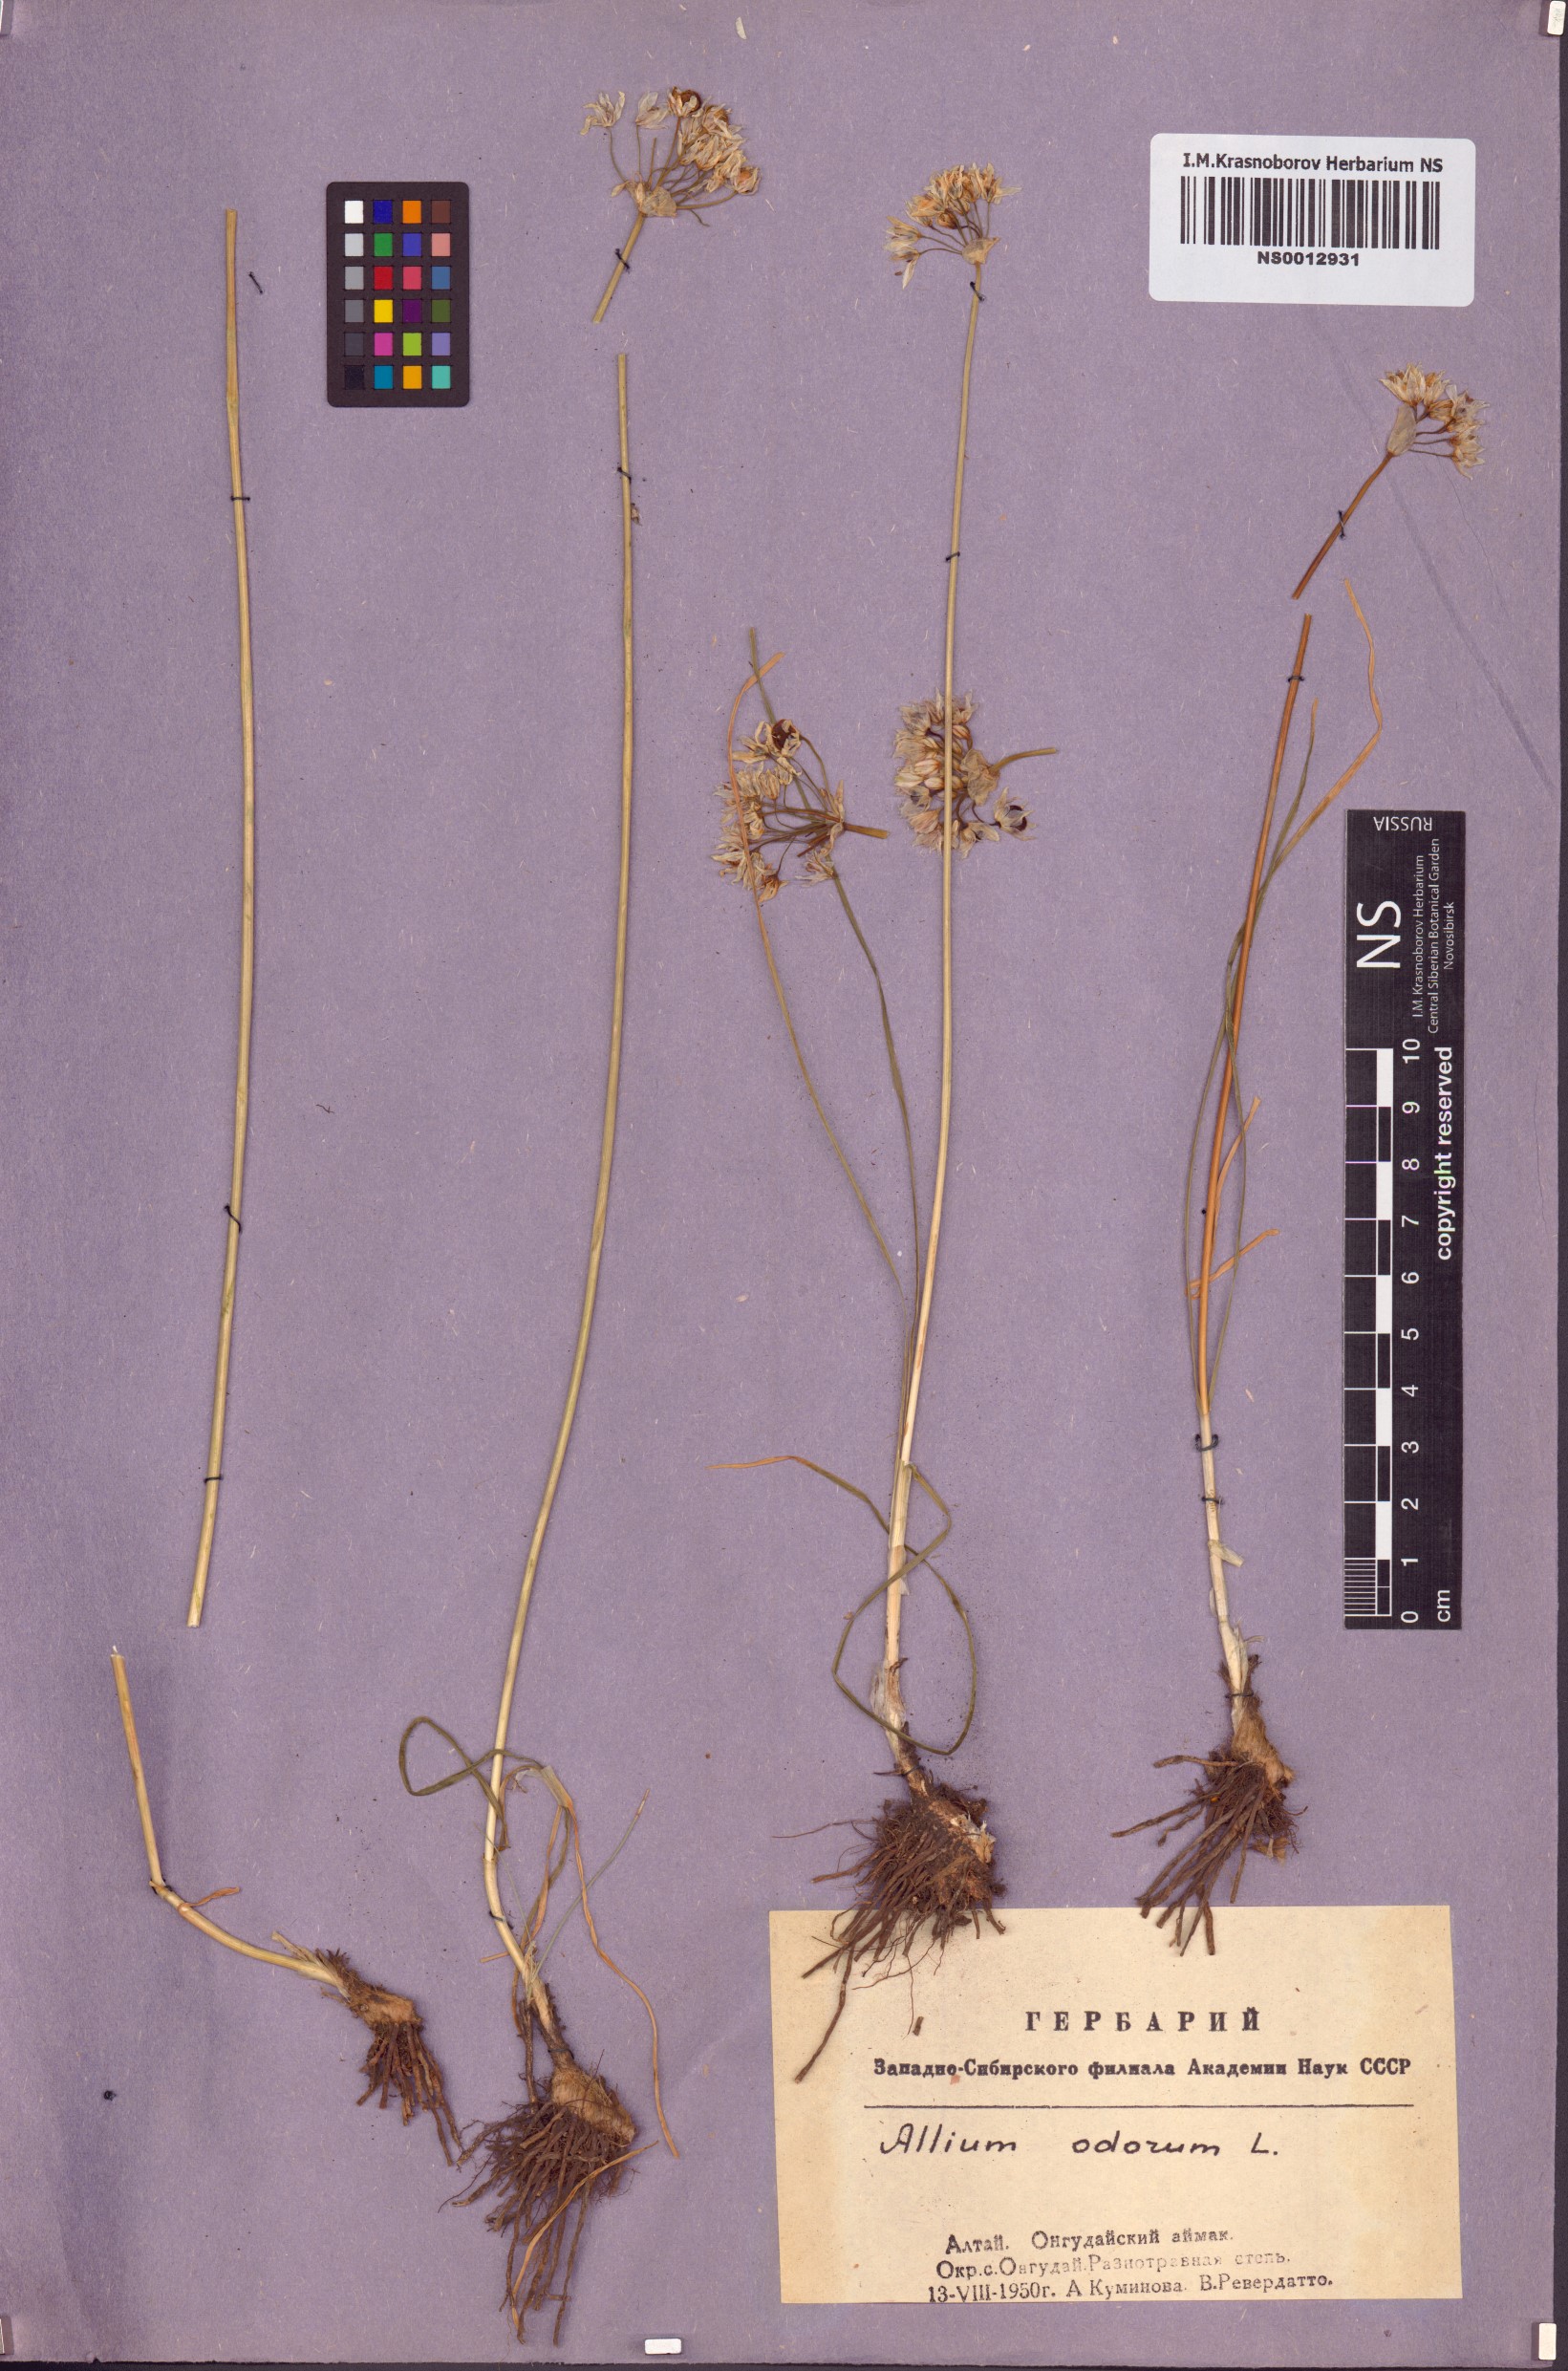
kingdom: Plantae
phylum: Tracheophyta
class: Liliopsida
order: Asparagales
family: Amaryllidaceae
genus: Allium
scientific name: Allium ramosum
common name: Fragrant garlic
